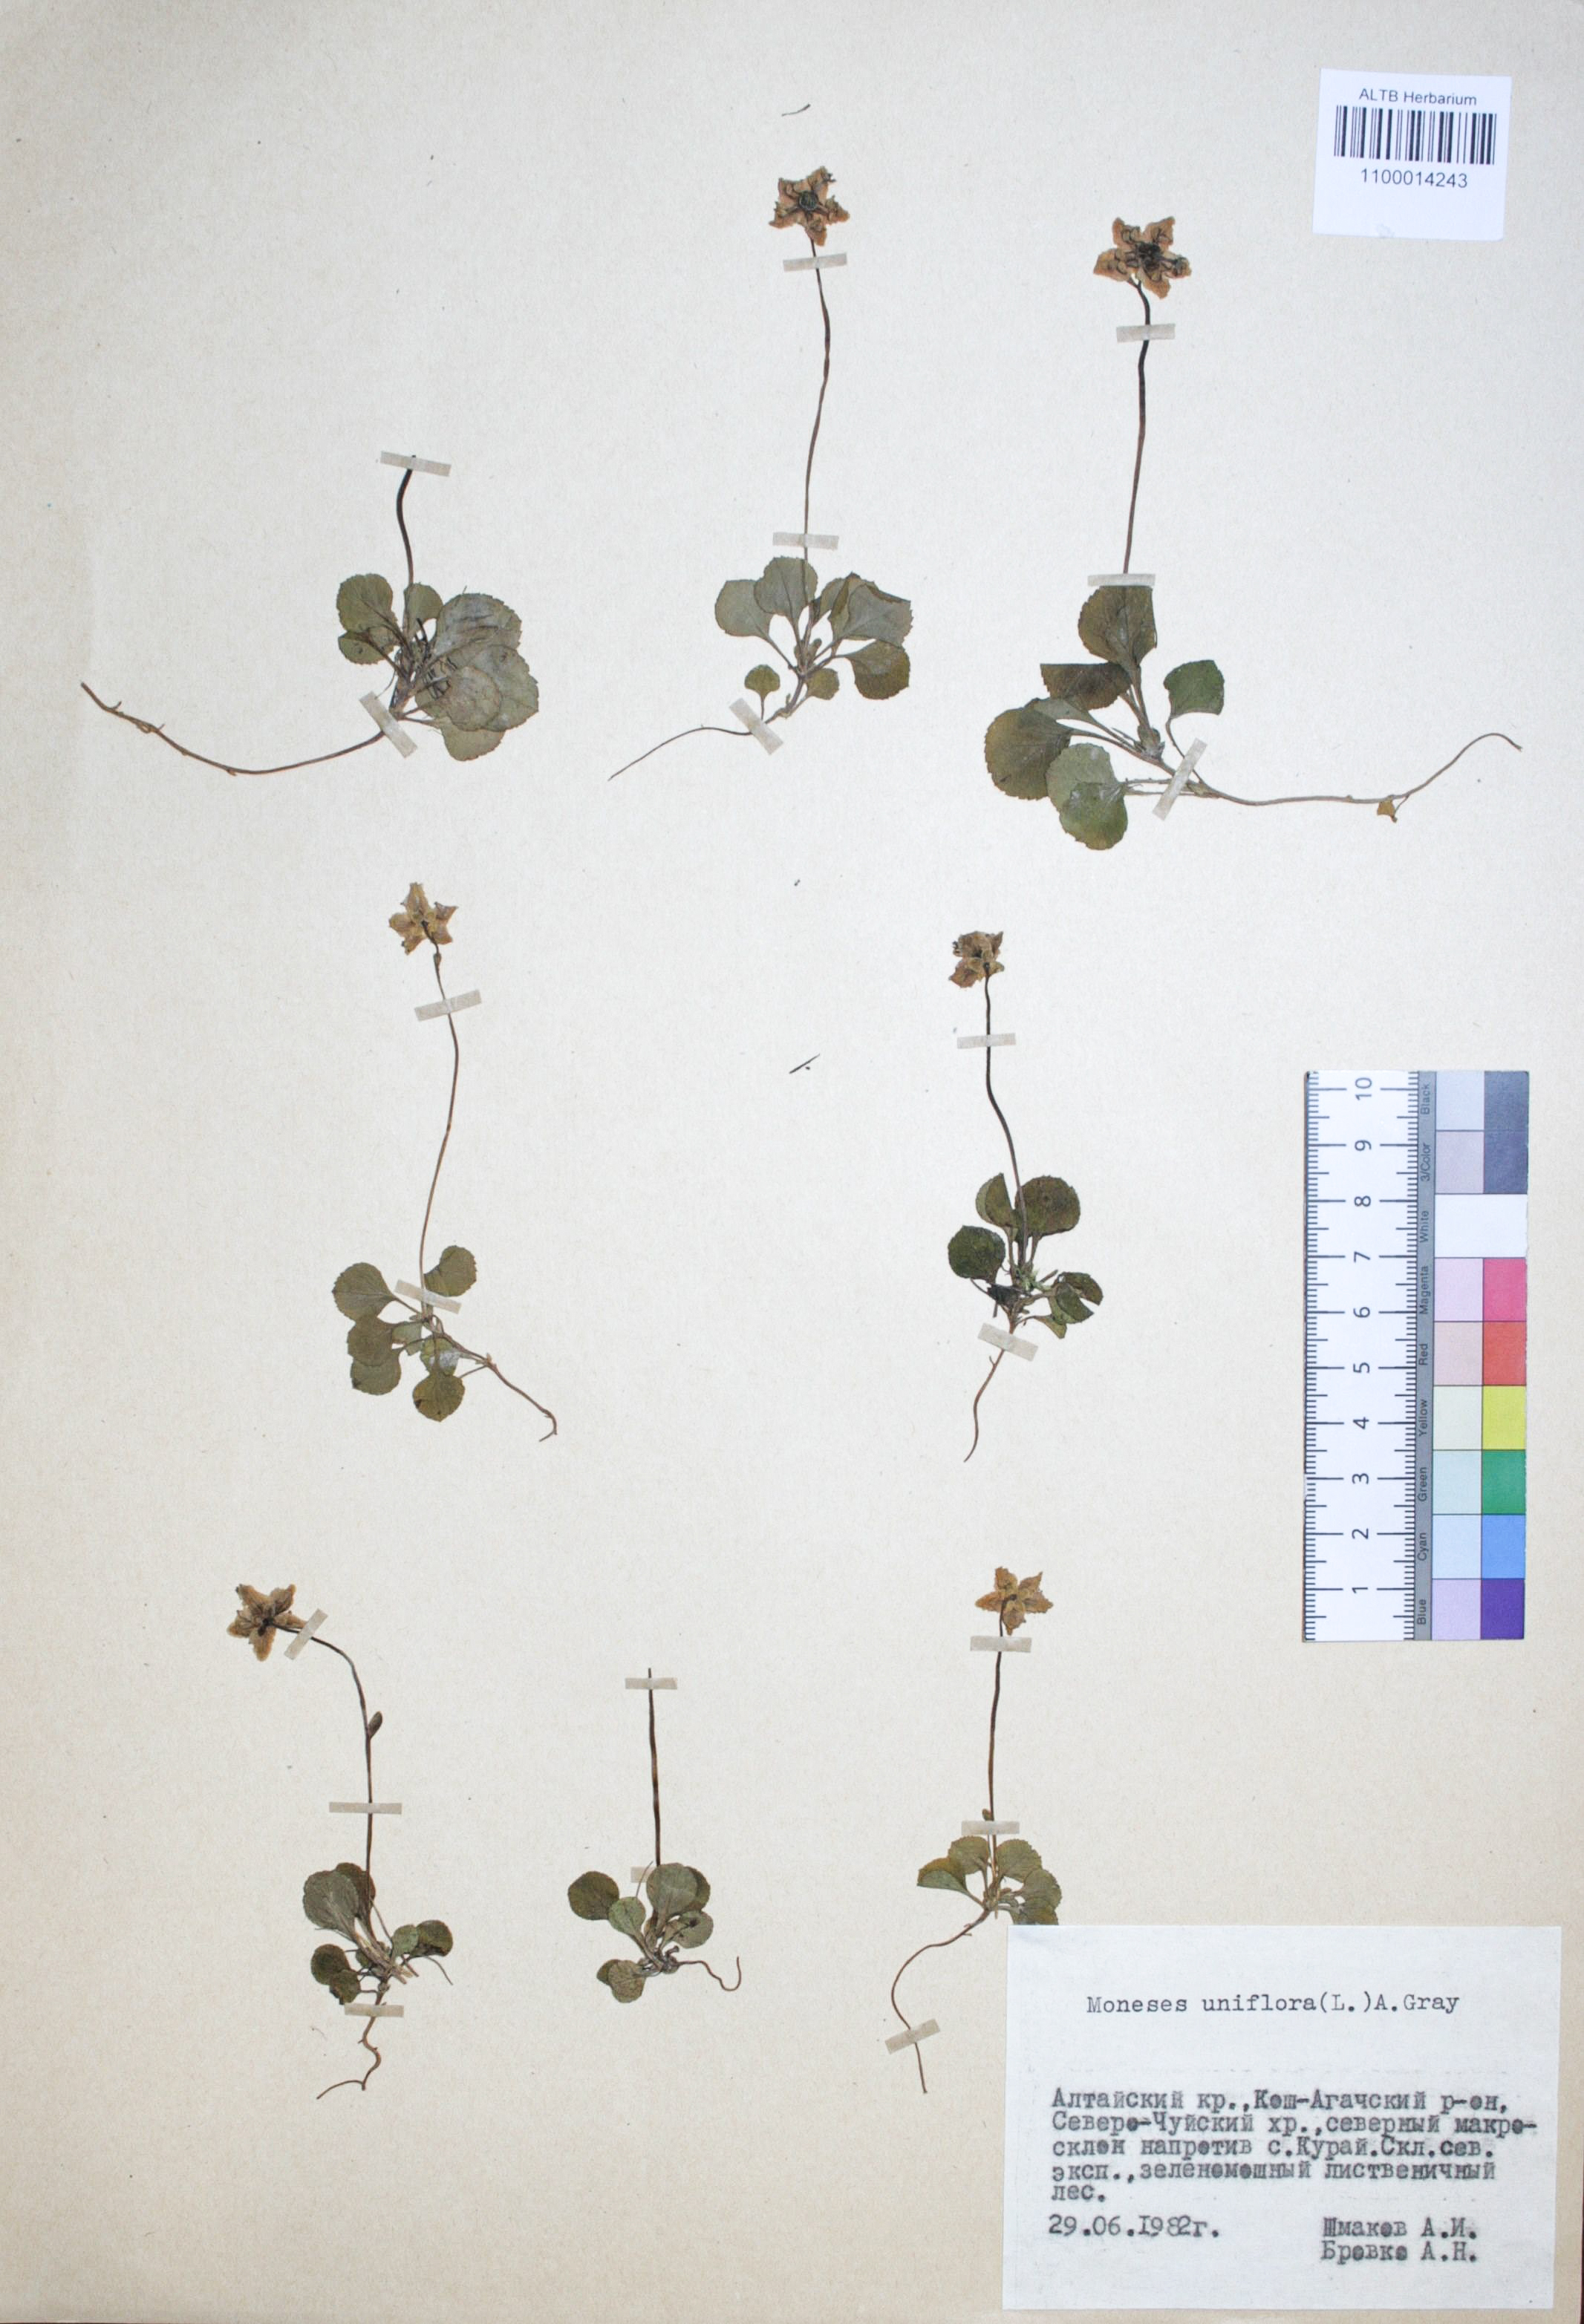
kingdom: Plantae
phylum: Tracheophyta
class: Magnoliopsida
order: Ericales
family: Ericaceae
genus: Moneses
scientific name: Moneses uniflora
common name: One-flowered wintergreen
